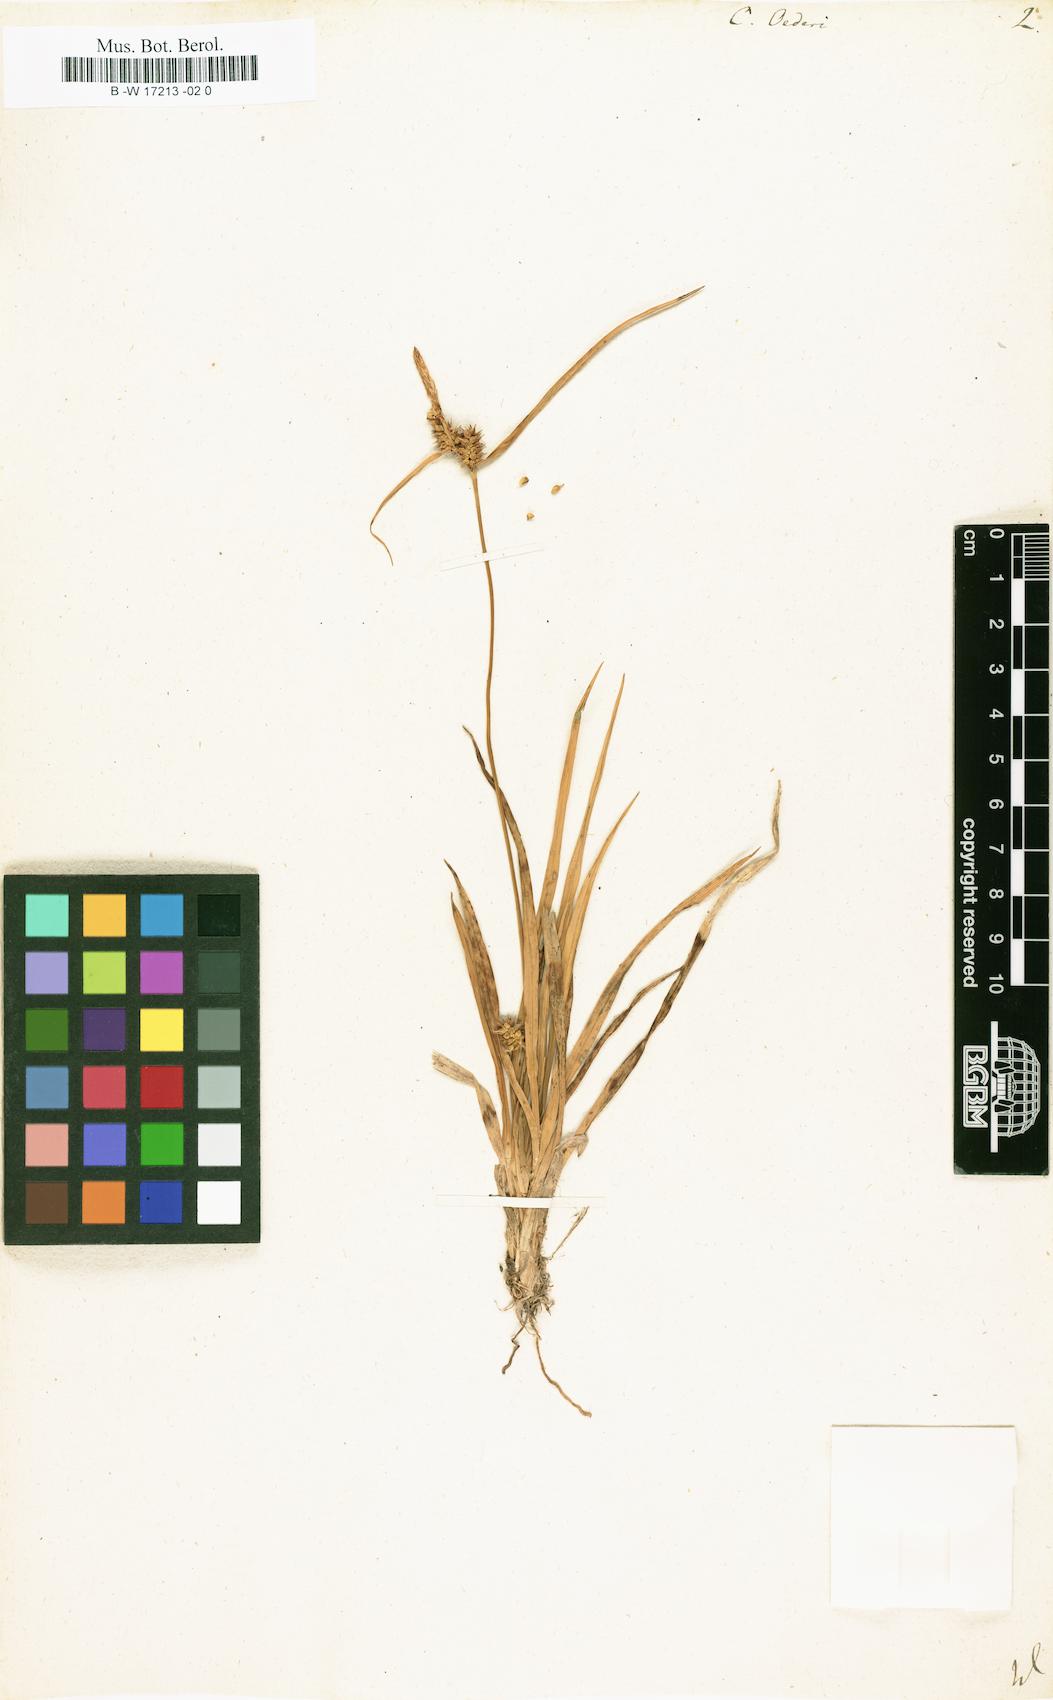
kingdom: Plantae
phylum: Tracheophyta
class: Liliopsida
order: Poales
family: Cyperaceae
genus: Carex
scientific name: Carex oederi
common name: Common & small-fruited yellow-sedge
